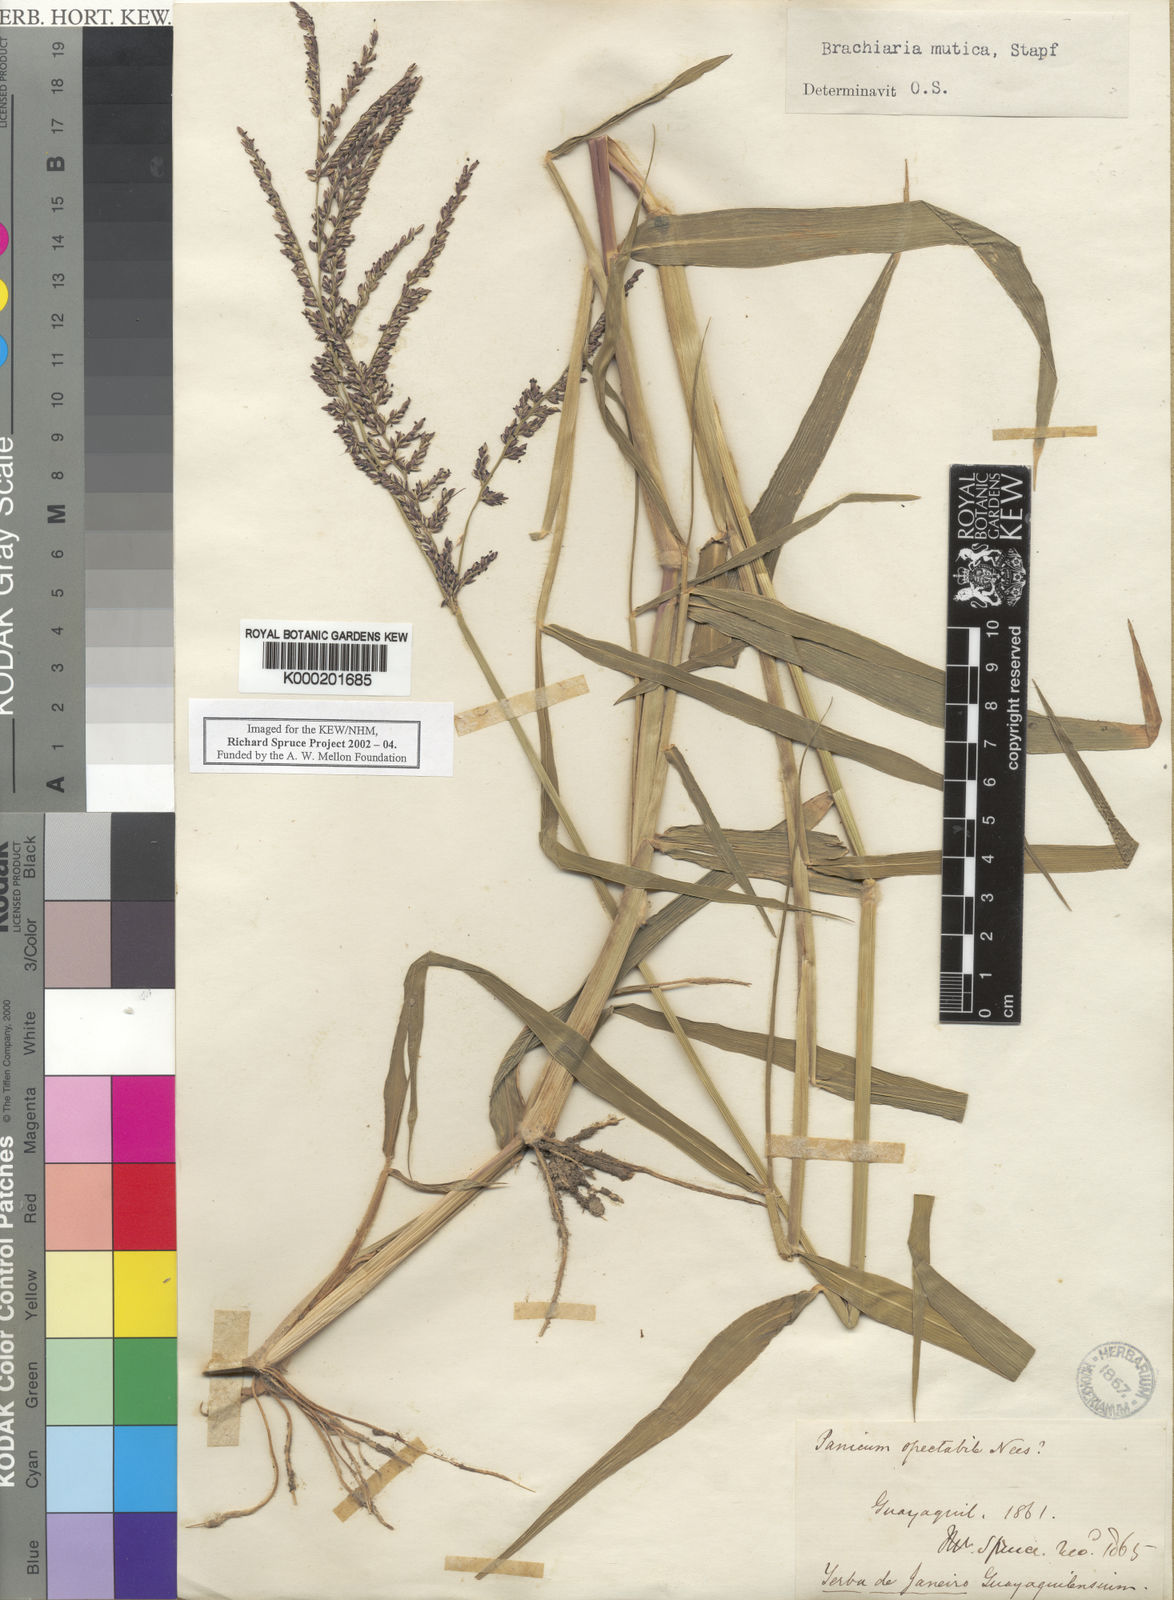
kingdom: Plantae
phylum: Tracheophyta
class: Liliopsida
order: Poales
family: Poaceae
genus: Urochloa
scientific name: Urochloa mutica
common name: Para grass
